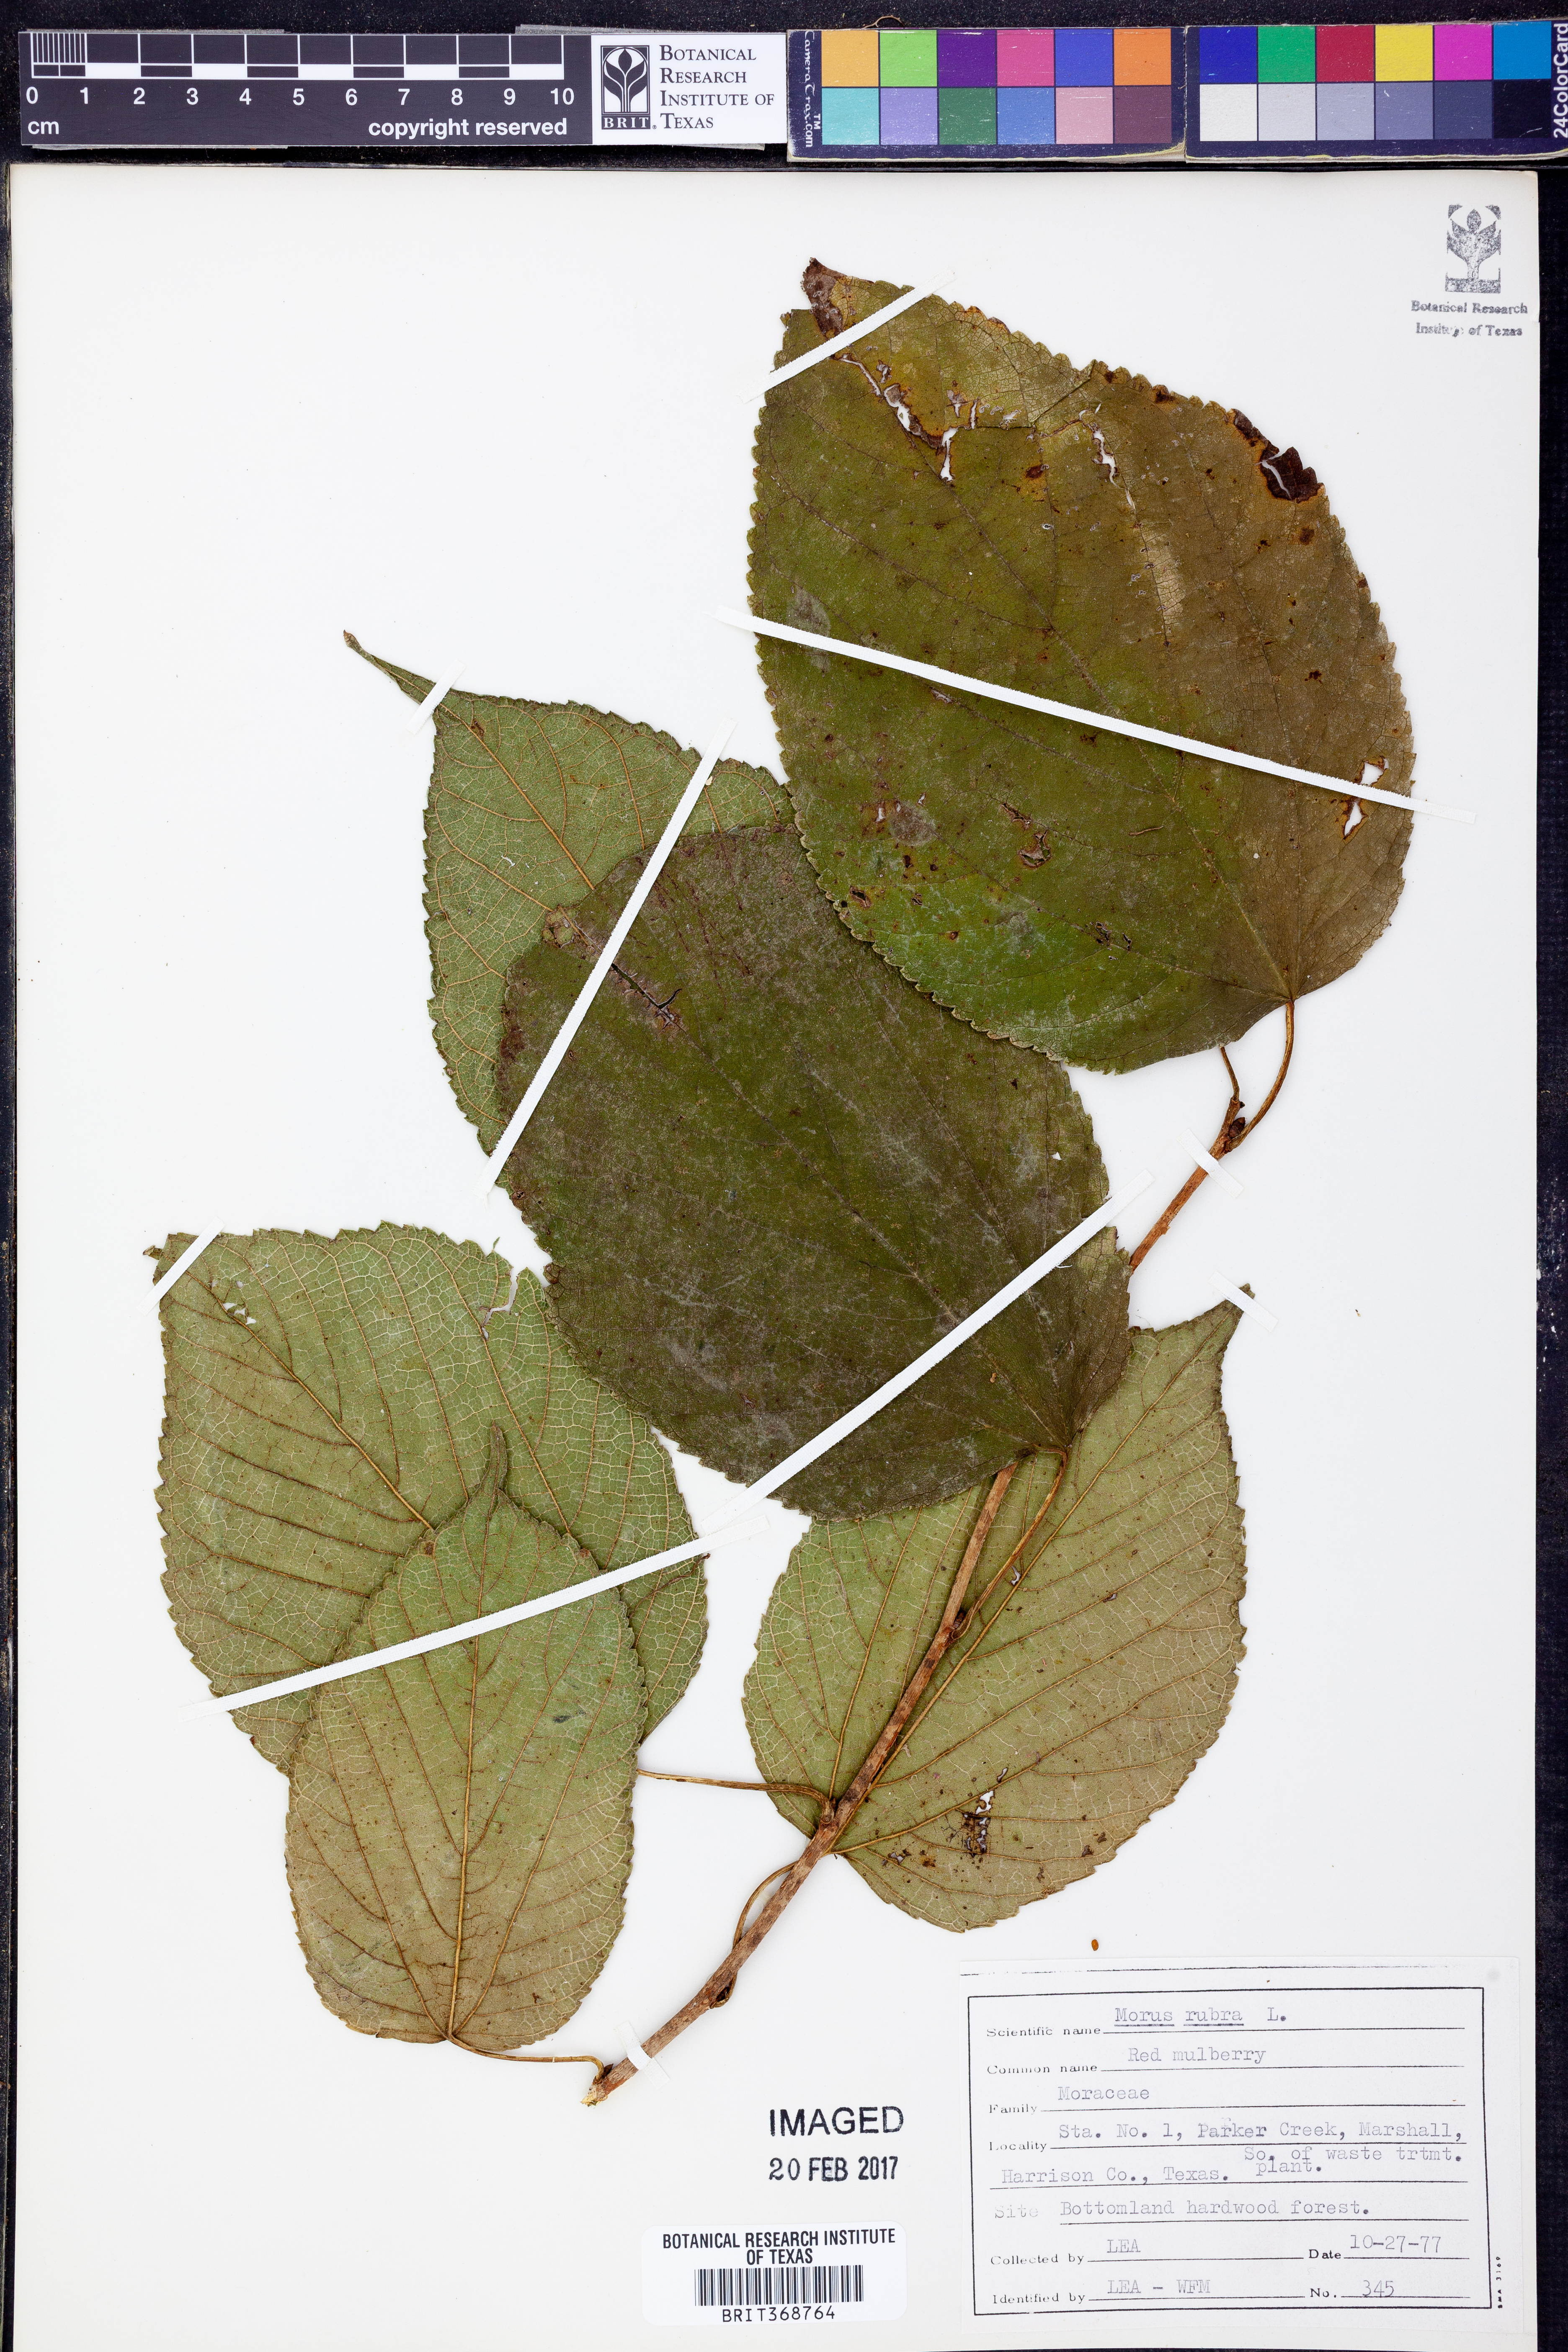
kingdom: Plantae
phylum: Tracheophyta
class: Magnoliopsida
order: Rosales
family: Moraceae
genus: Morus
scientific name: Morus rubra
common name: Red mulberry
